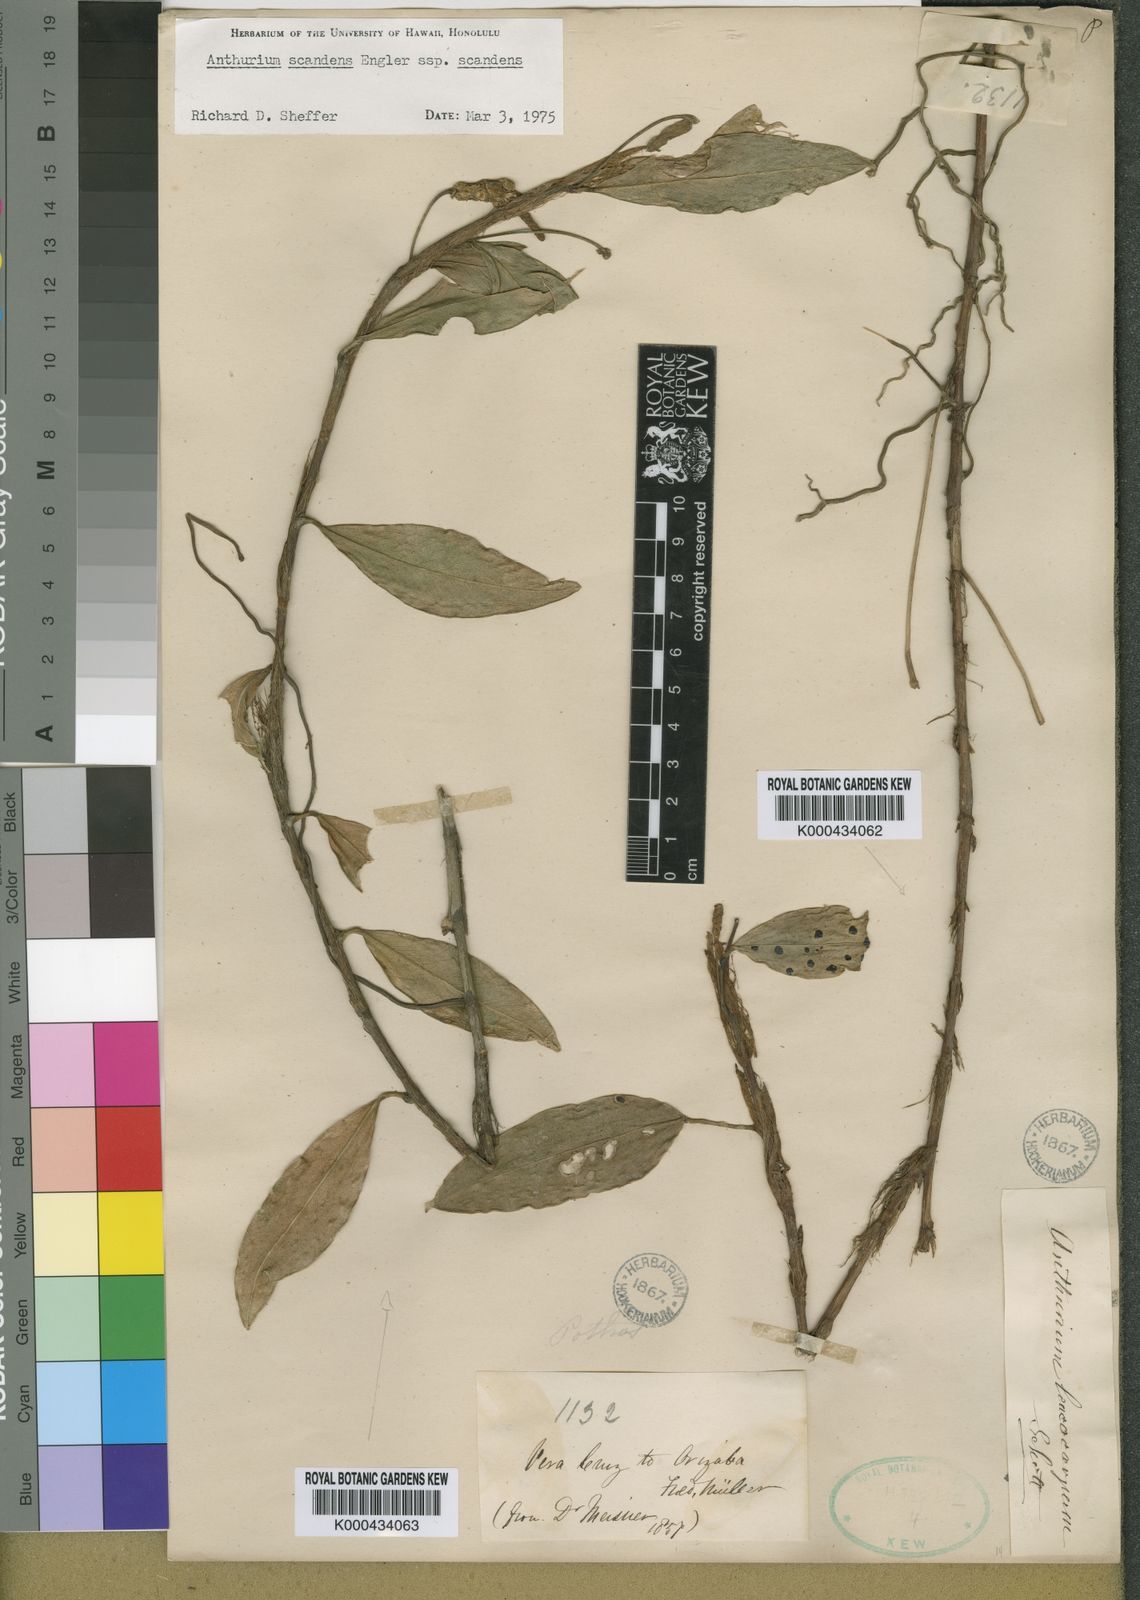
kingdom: Plantae
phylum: Tracheophyta
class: Liliopsida
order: Alismatales
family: Araceae
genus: Anthurium
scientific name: Anthurium scandens
